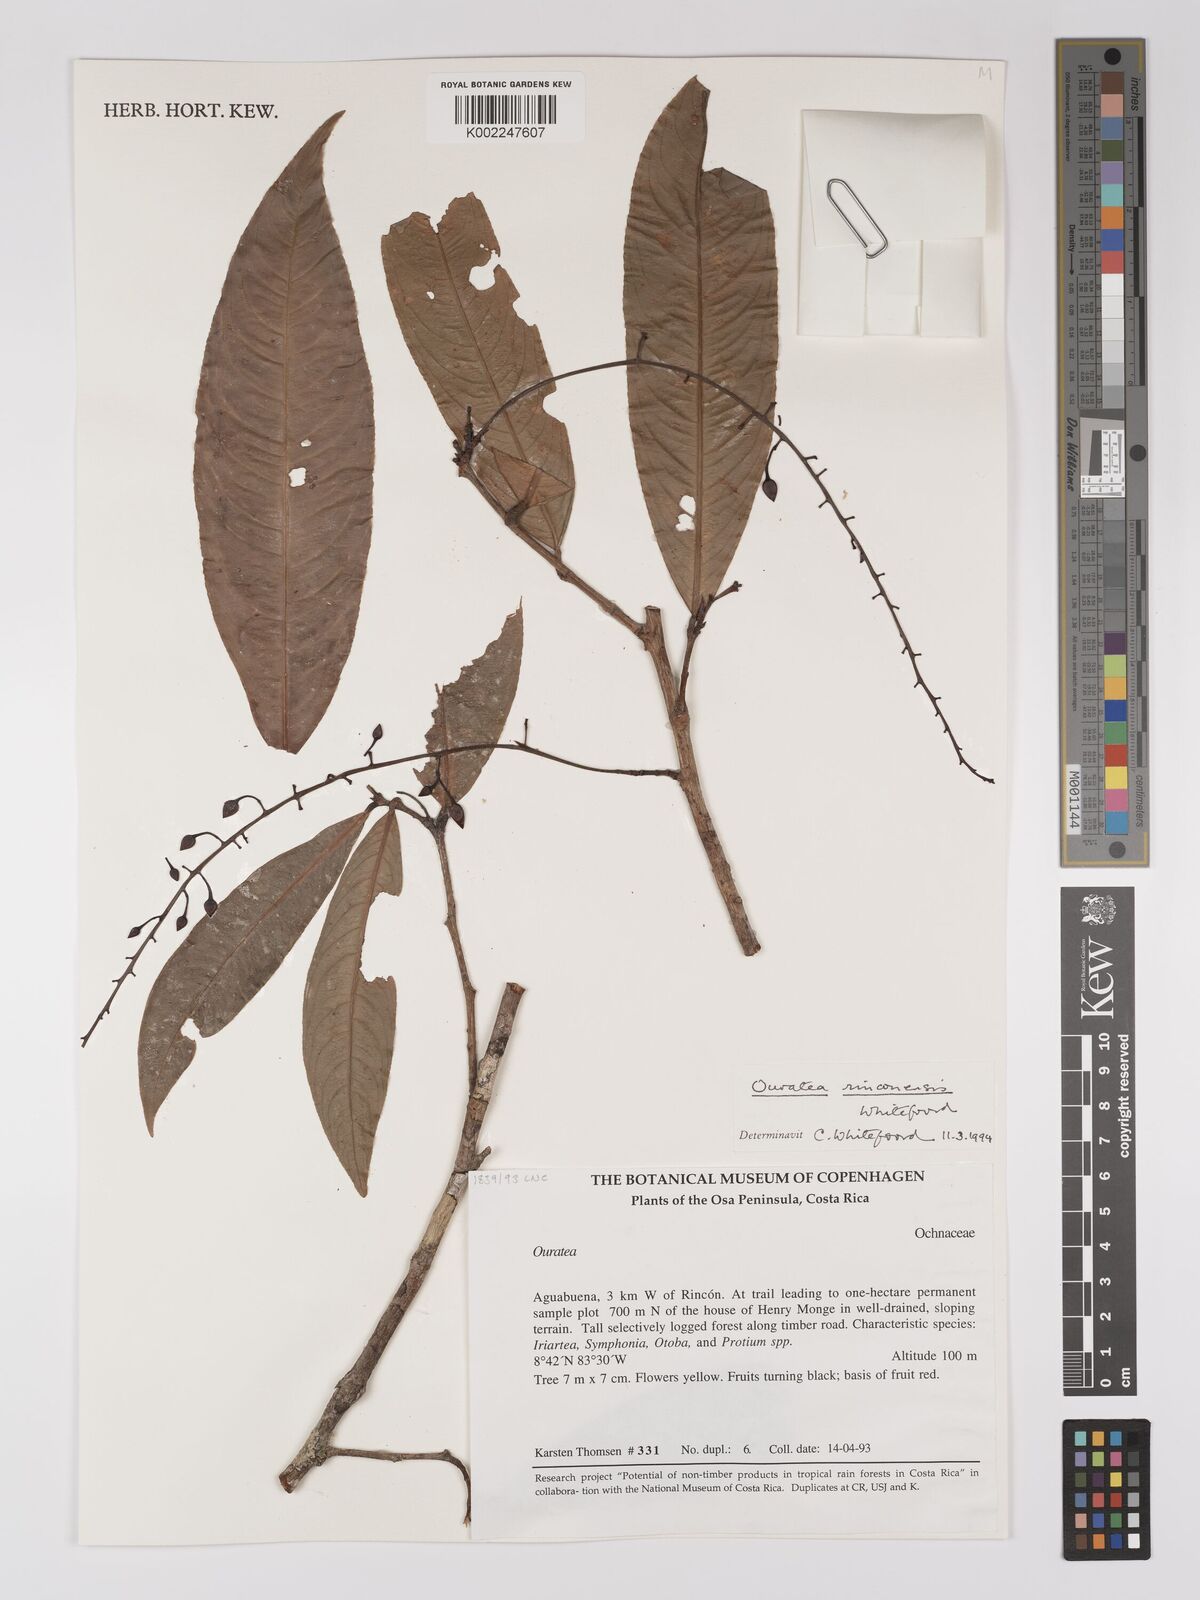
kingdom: Plantae
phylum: Tracheophyta
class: Magnoliopsida
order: Malpighiales
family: Ochnaceae
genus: Ouratea
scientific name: Ouratea rinconensis
